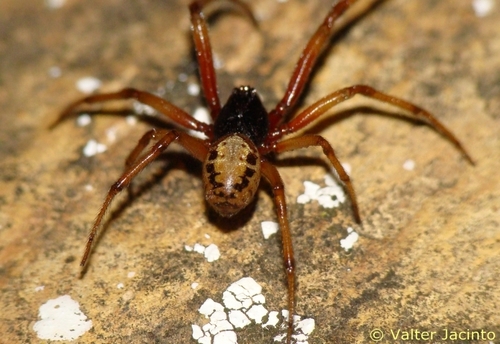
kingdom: Animalia
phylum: Arthropoda
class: Arachnida
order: Araneae
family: Theridiidae
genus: Steatoda
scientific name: Steatoda nobilis
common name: Cobweb weaver
